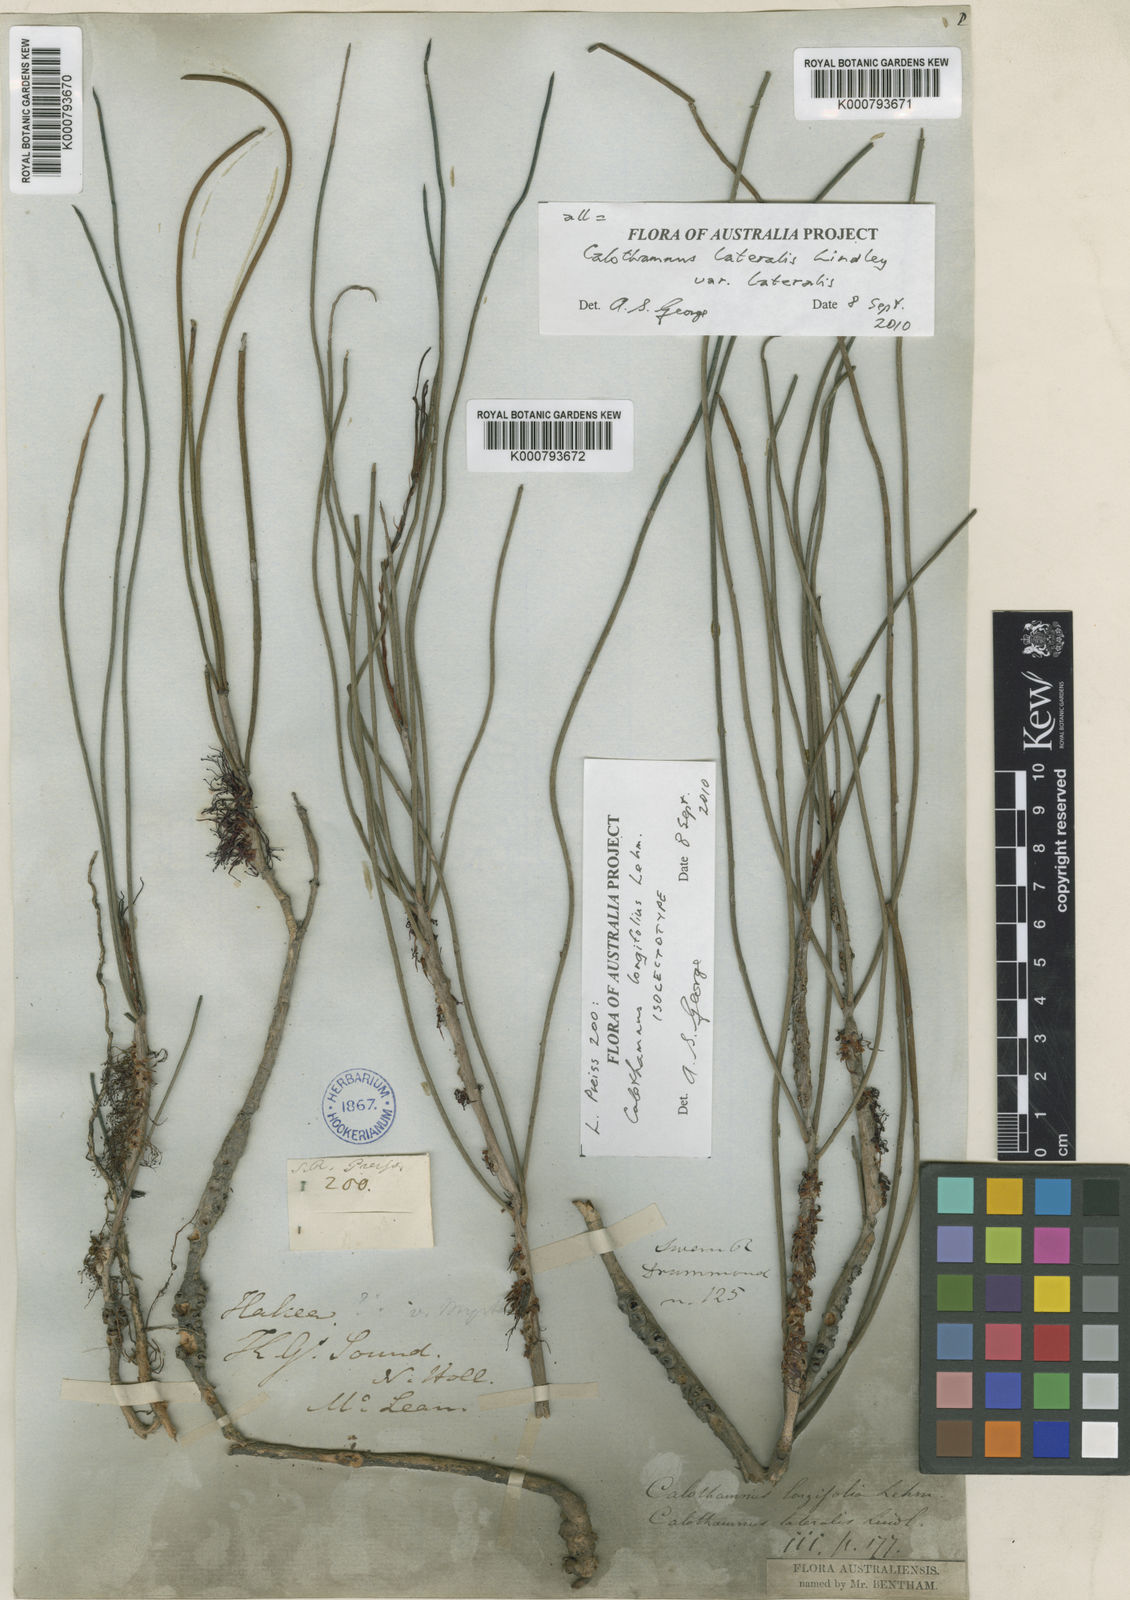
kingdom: Plantae
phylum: Tracheophyta
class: Magnoliopsida
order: Myrtales
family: Myrtaceae
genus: Melaleuca
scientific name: Melaleuca lateralis
